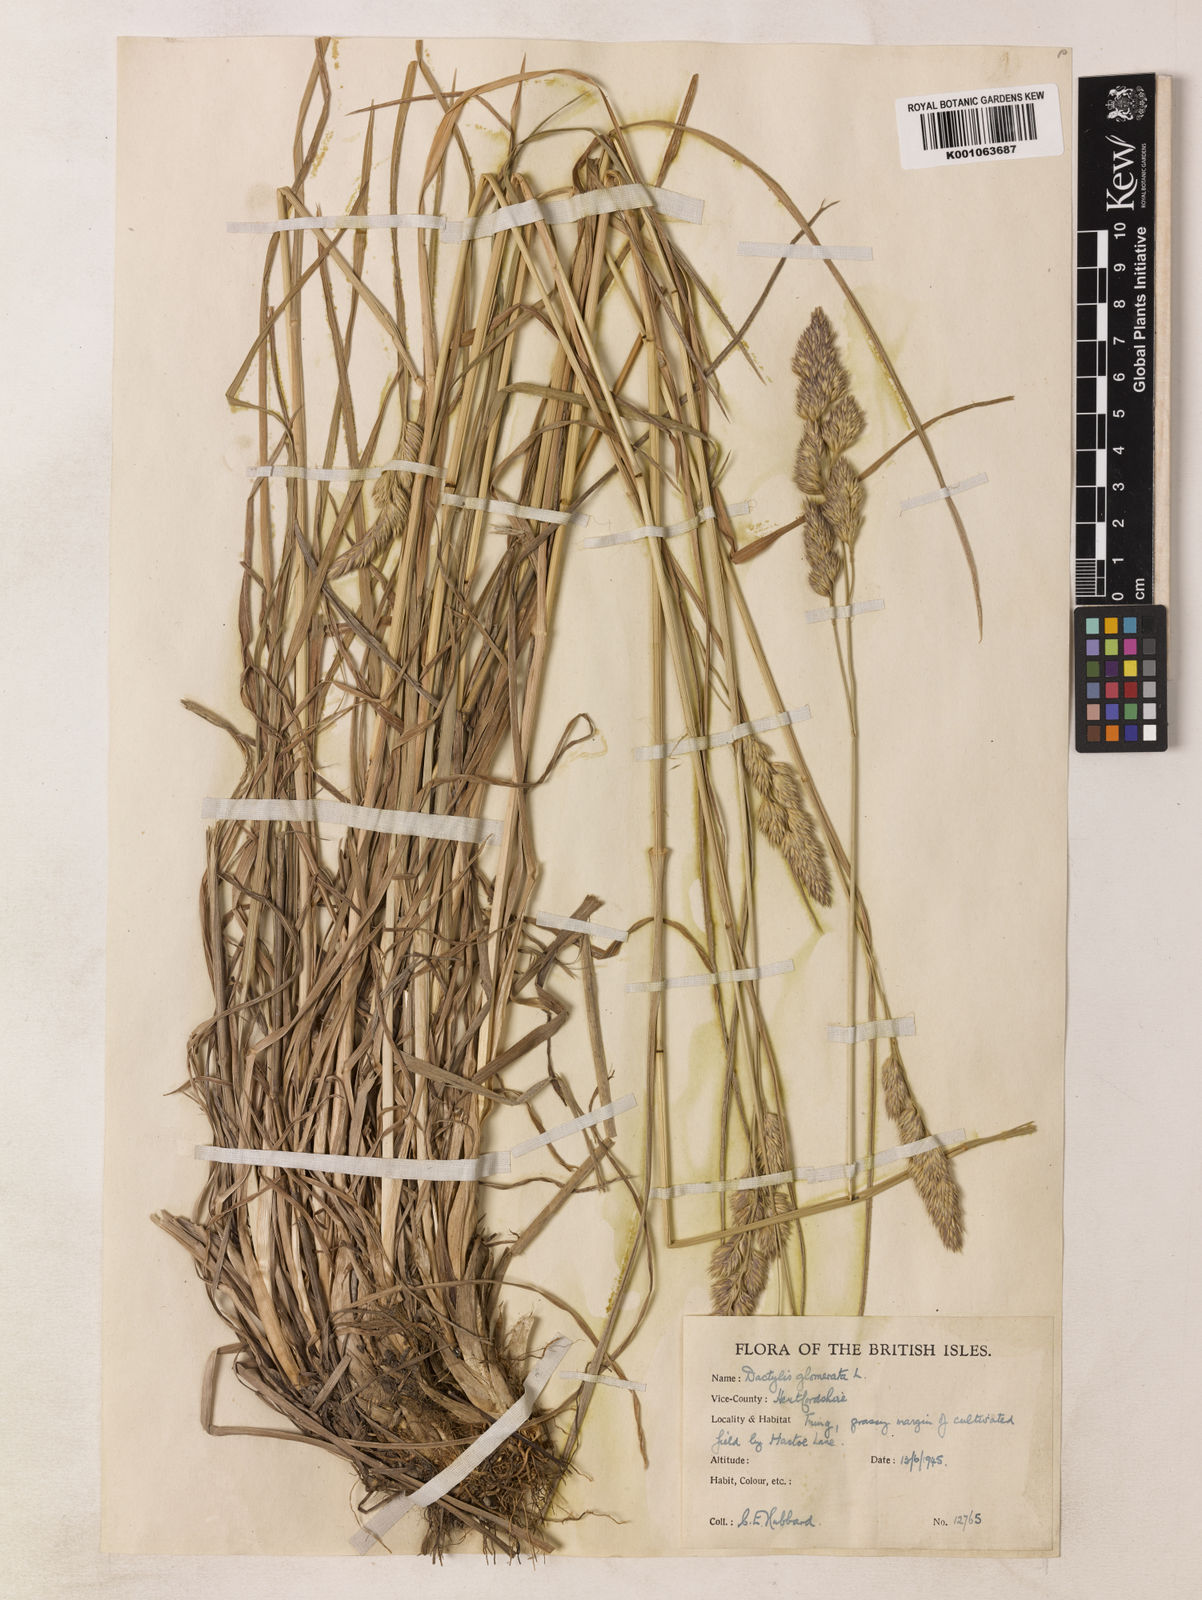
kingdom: Plantae
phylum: Tracheophyta
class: Liliopsida
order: Poales
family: Poaceae
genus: Dactylis
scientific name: Dactylis glomerata
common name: Orchardgrass
